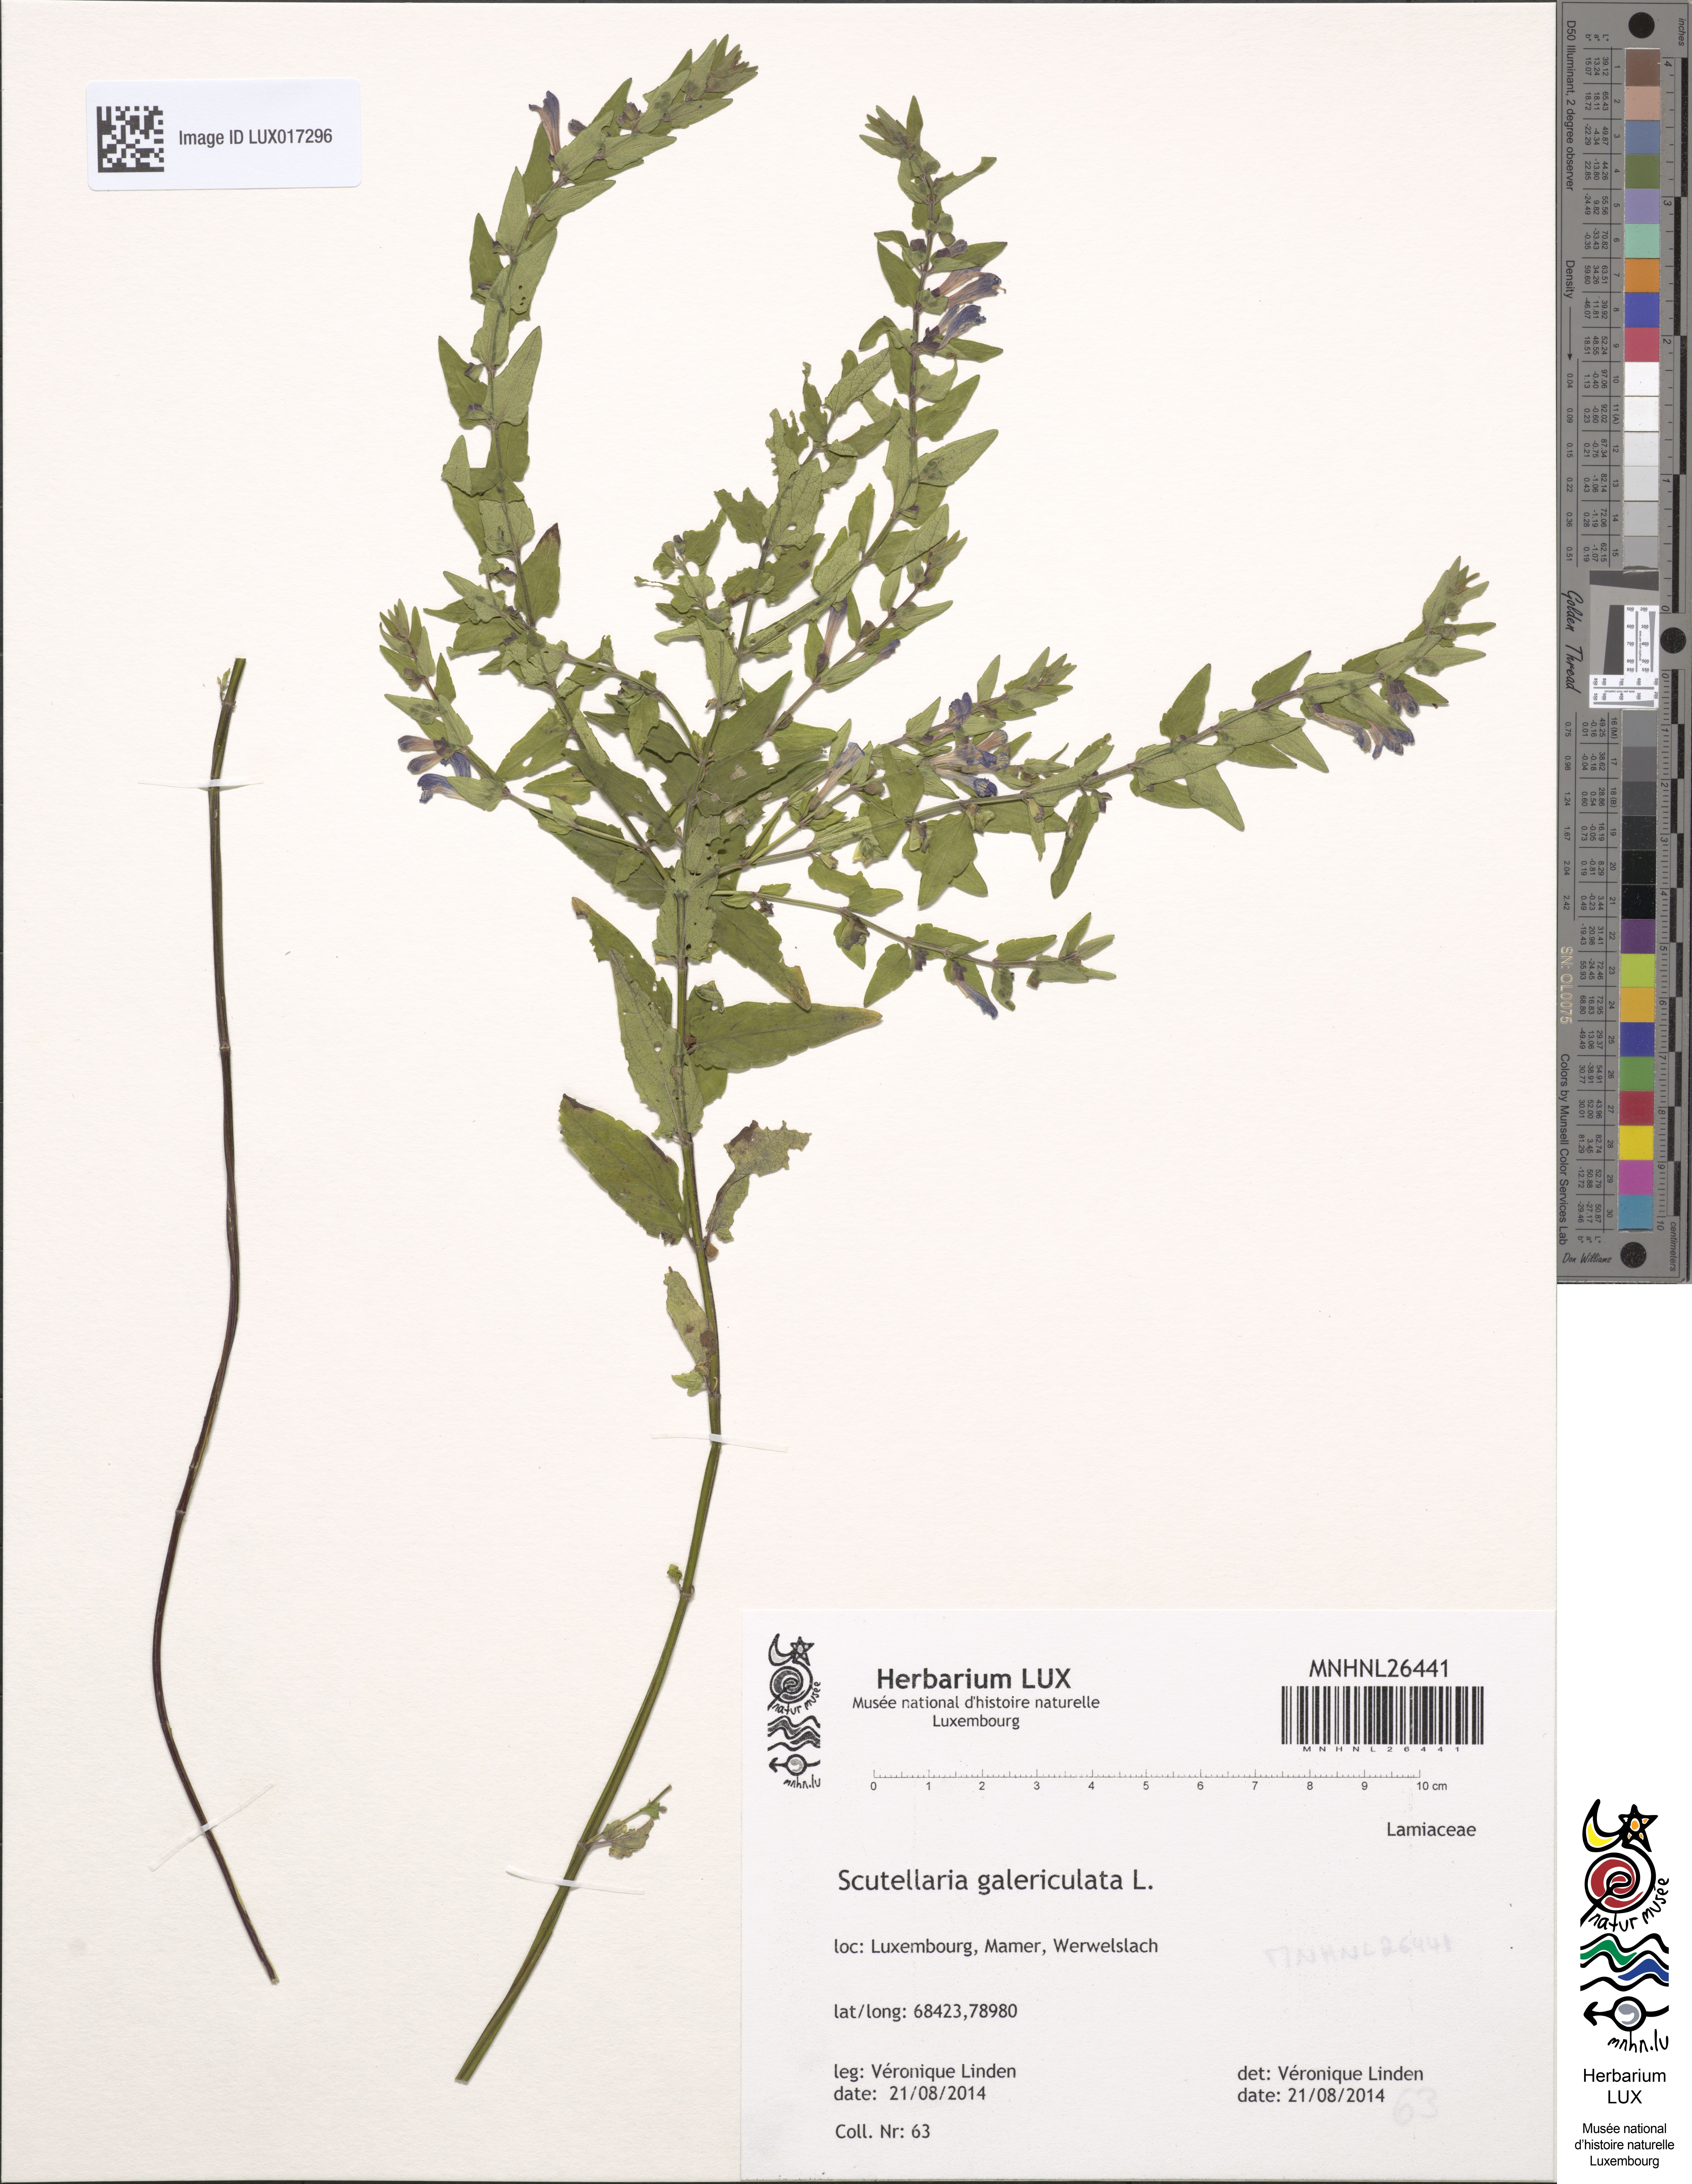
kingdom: Plantae
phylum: Tracheophyta
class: Magnoliopsida
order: Lamiales
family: Lamiaceae
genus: Scutellaria
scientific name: Scutellaria galericulata
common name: Skullcap
